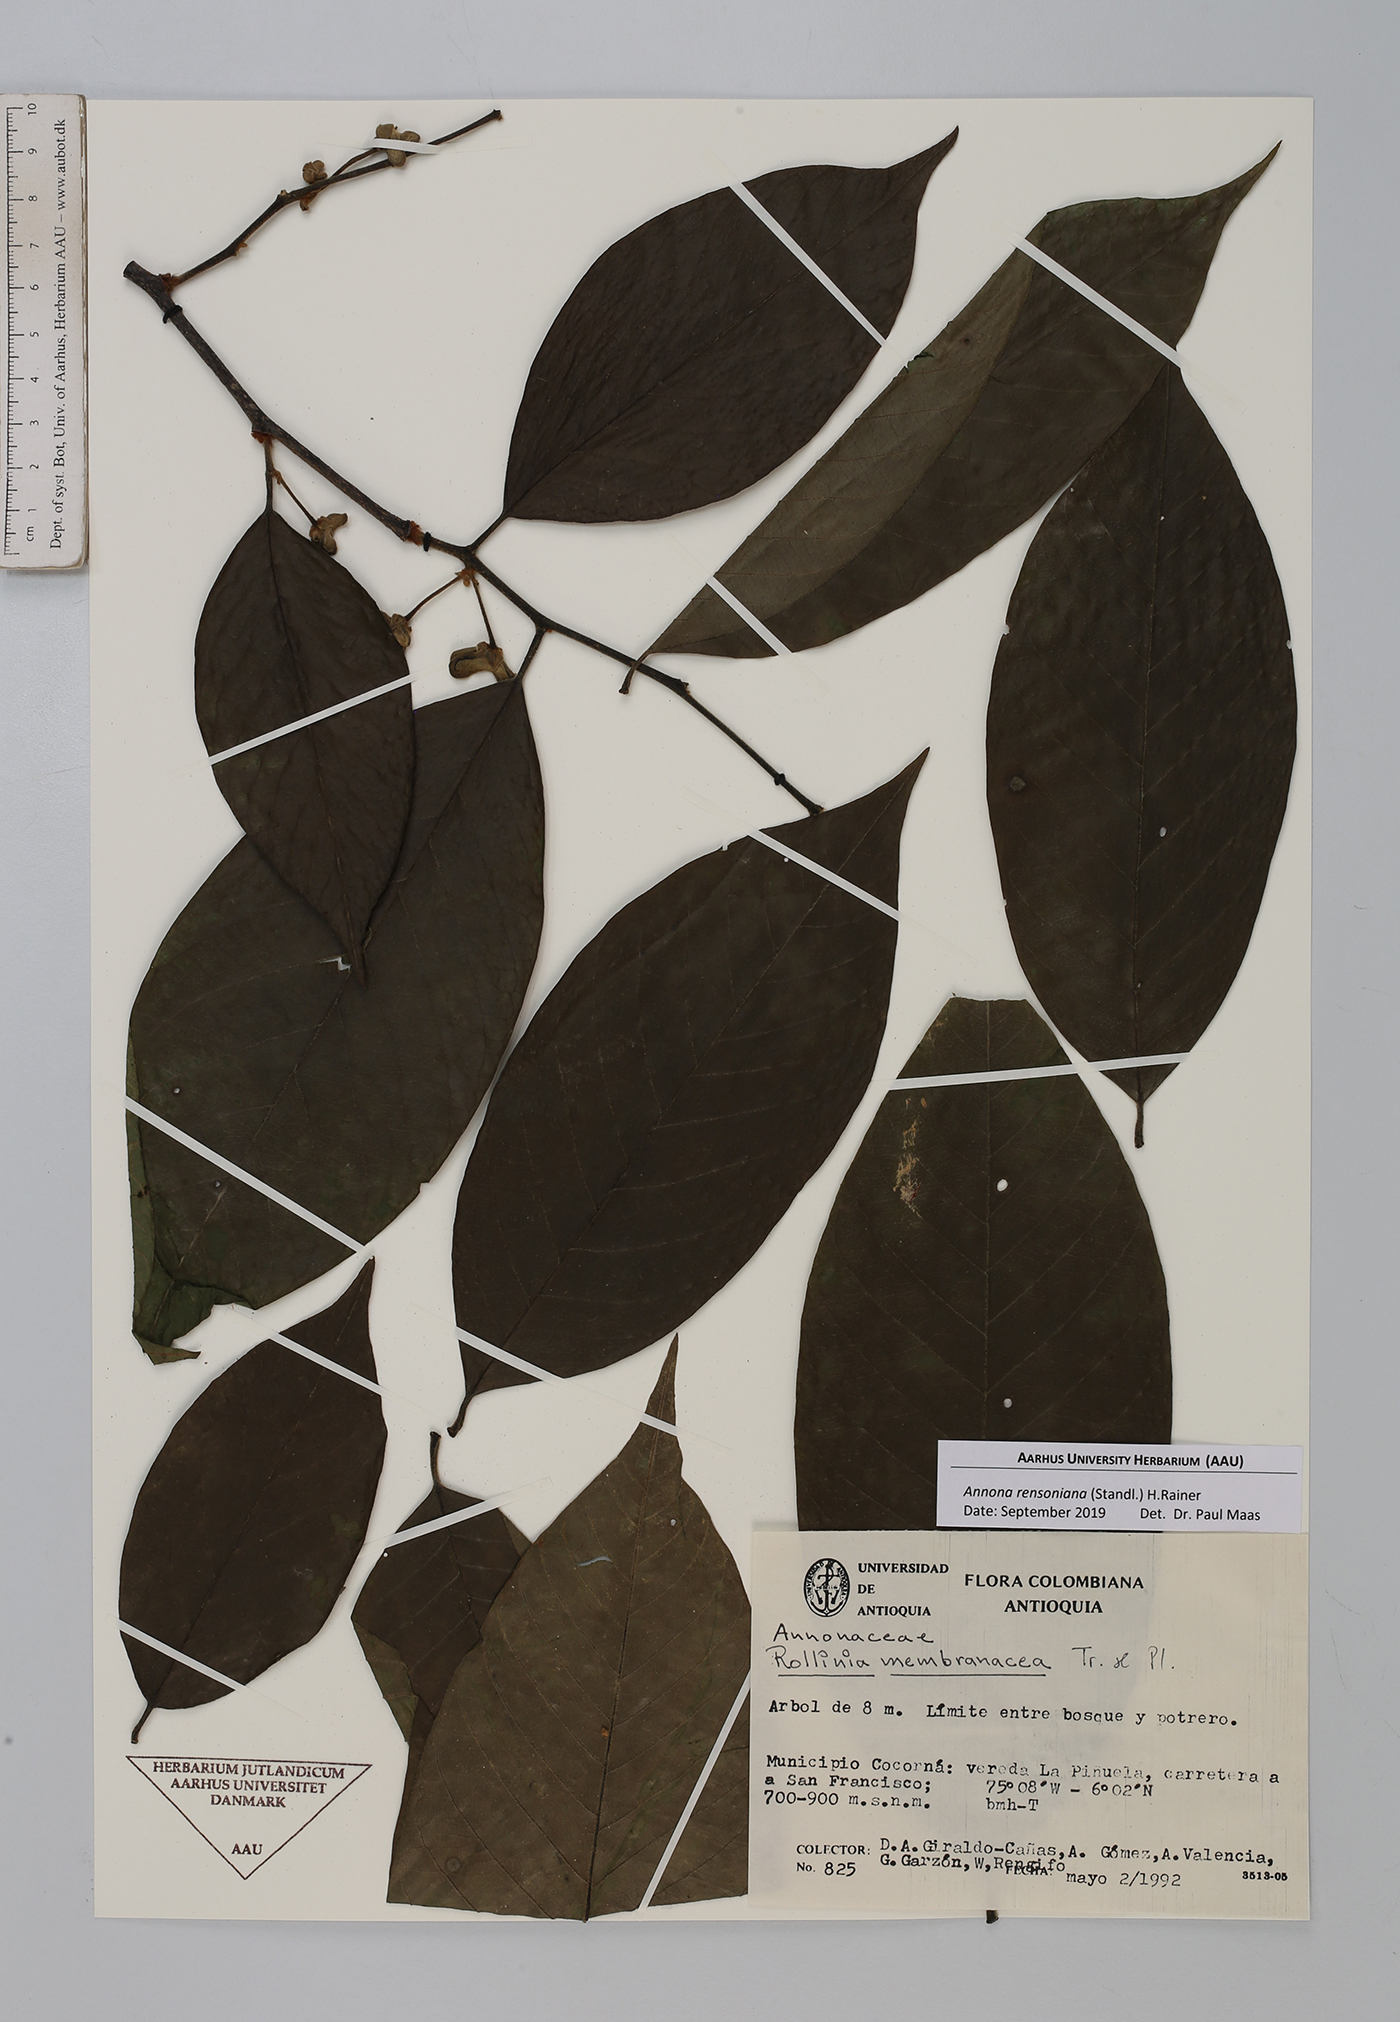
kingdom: Plantae
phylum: Tracheophyta
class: Magnoliopsida
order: Magnoliales
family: Annonaceae
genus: Annona
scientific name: Annona rensoniana
